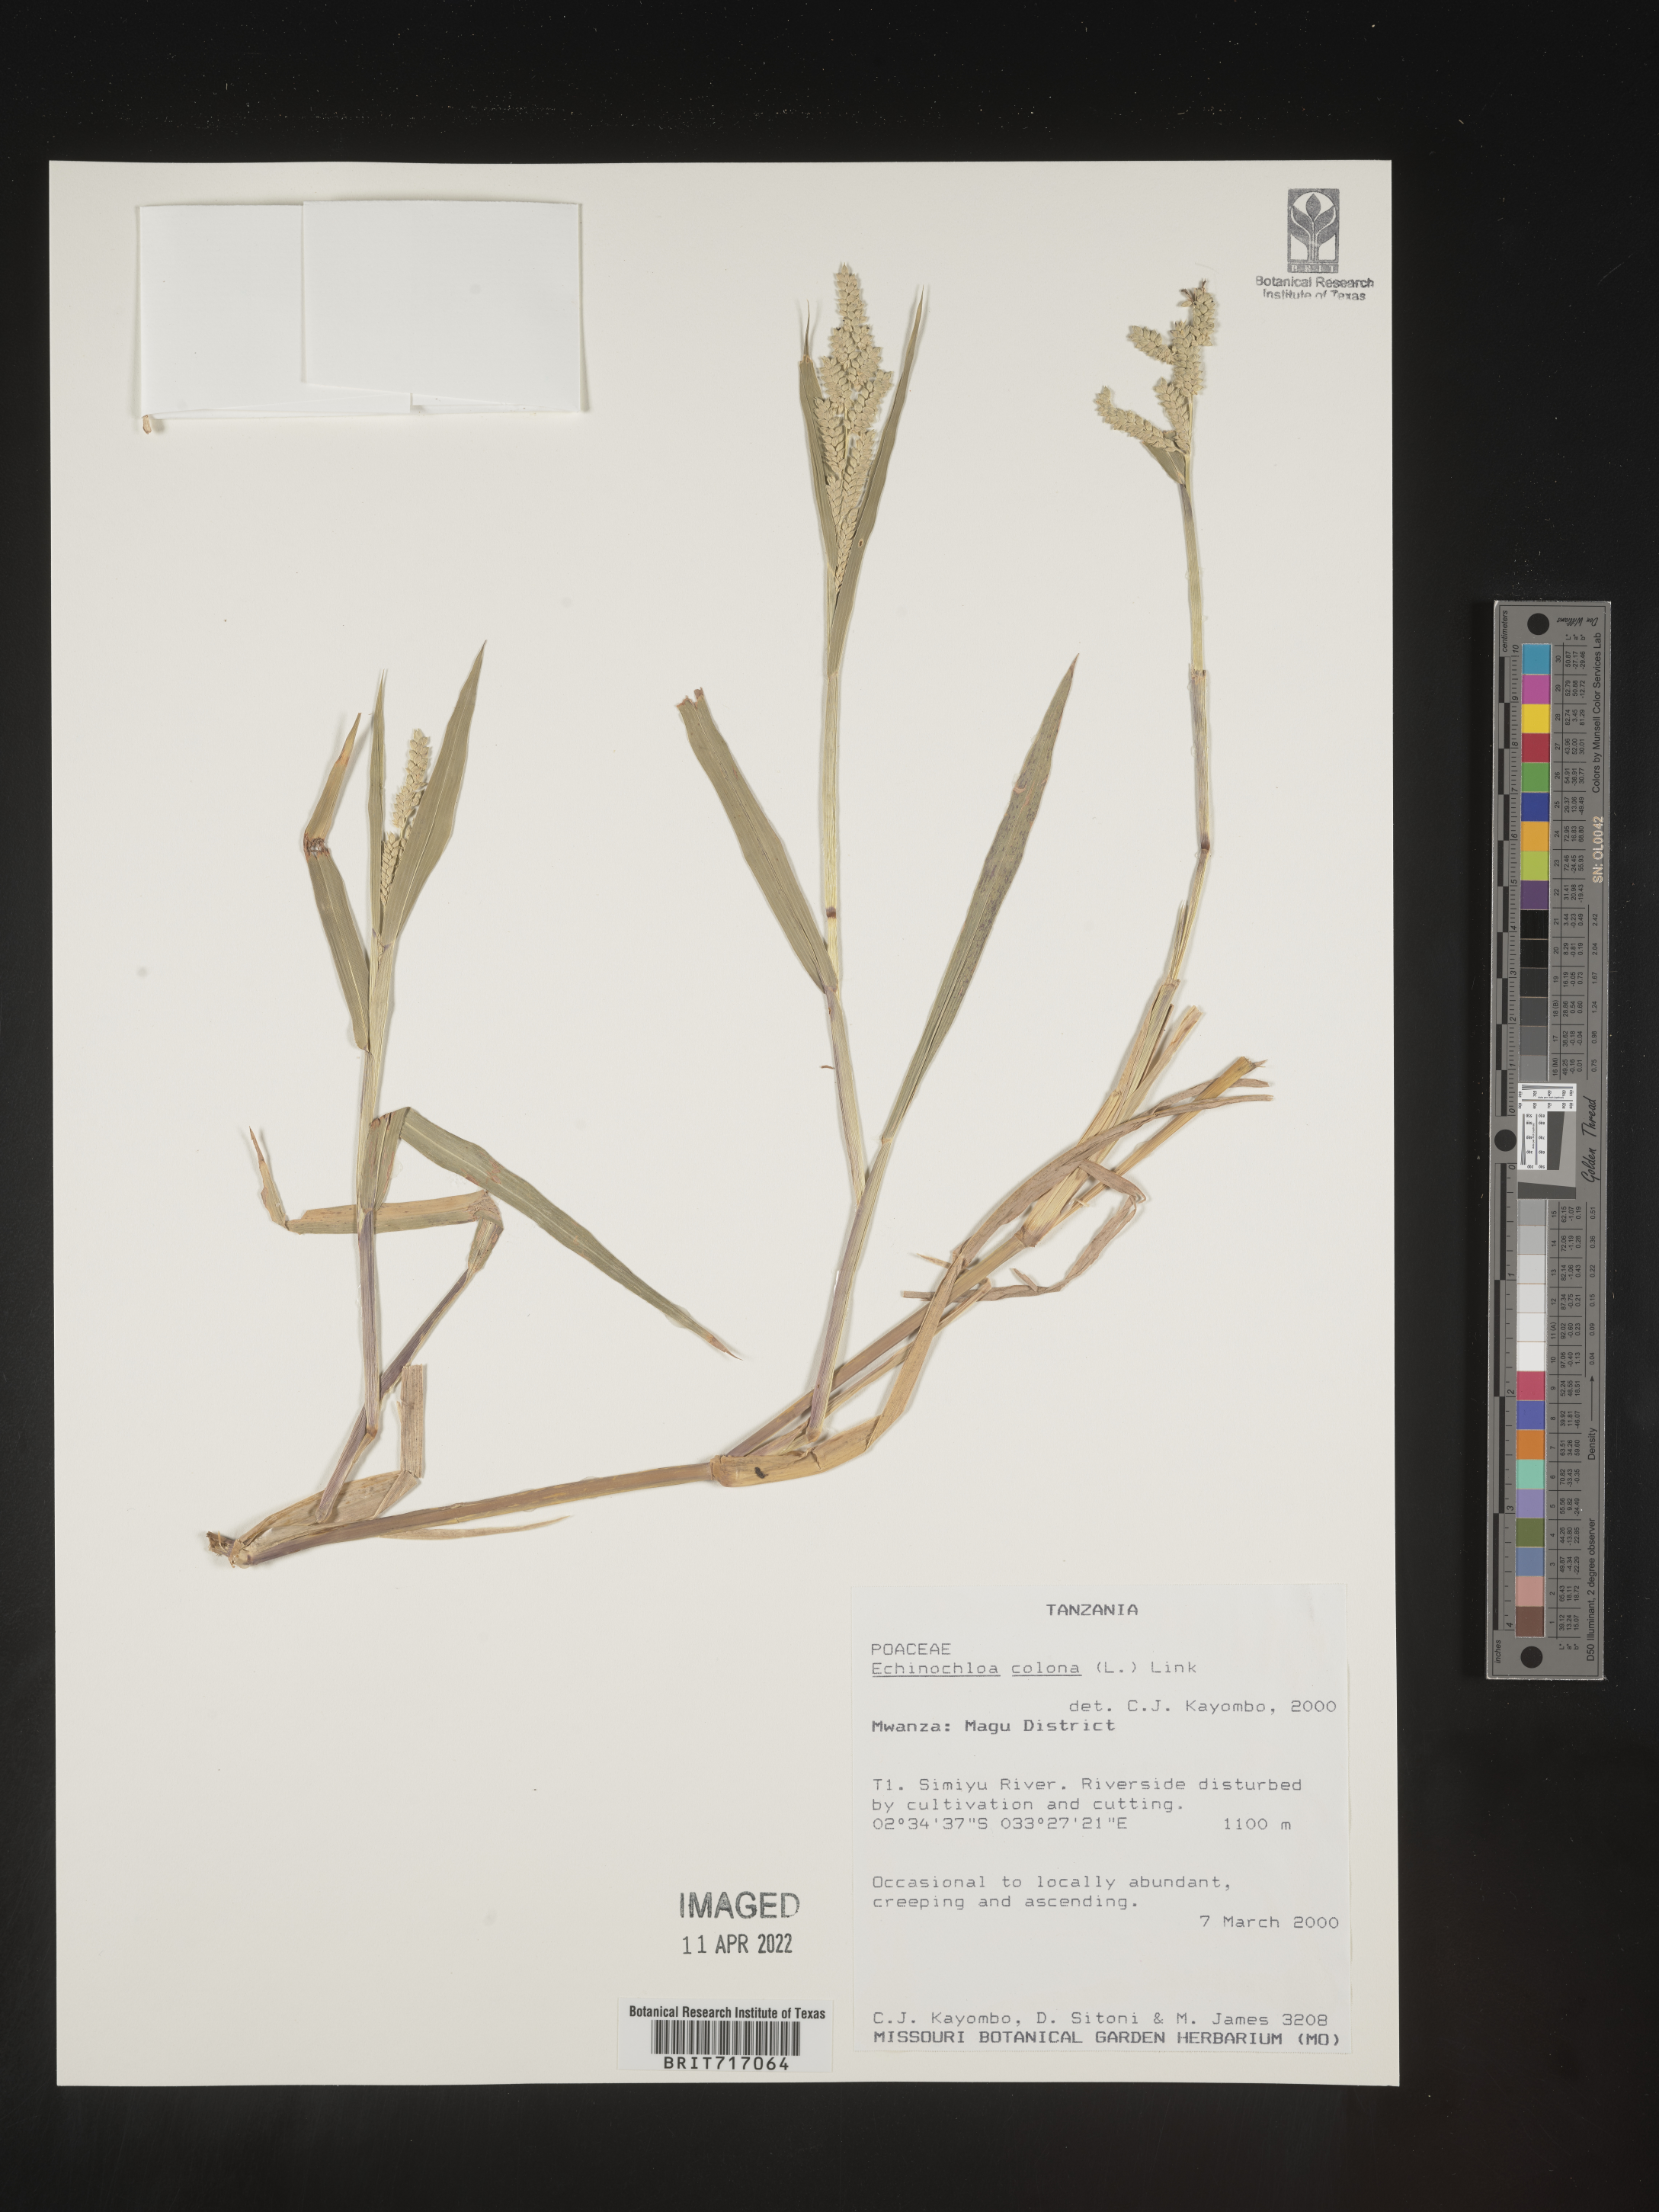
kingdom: Plantae
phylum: Tracheophyta
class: Liliopsida
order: Poales
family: Poaceae
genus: Echinochloa
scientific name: Echinochloa
